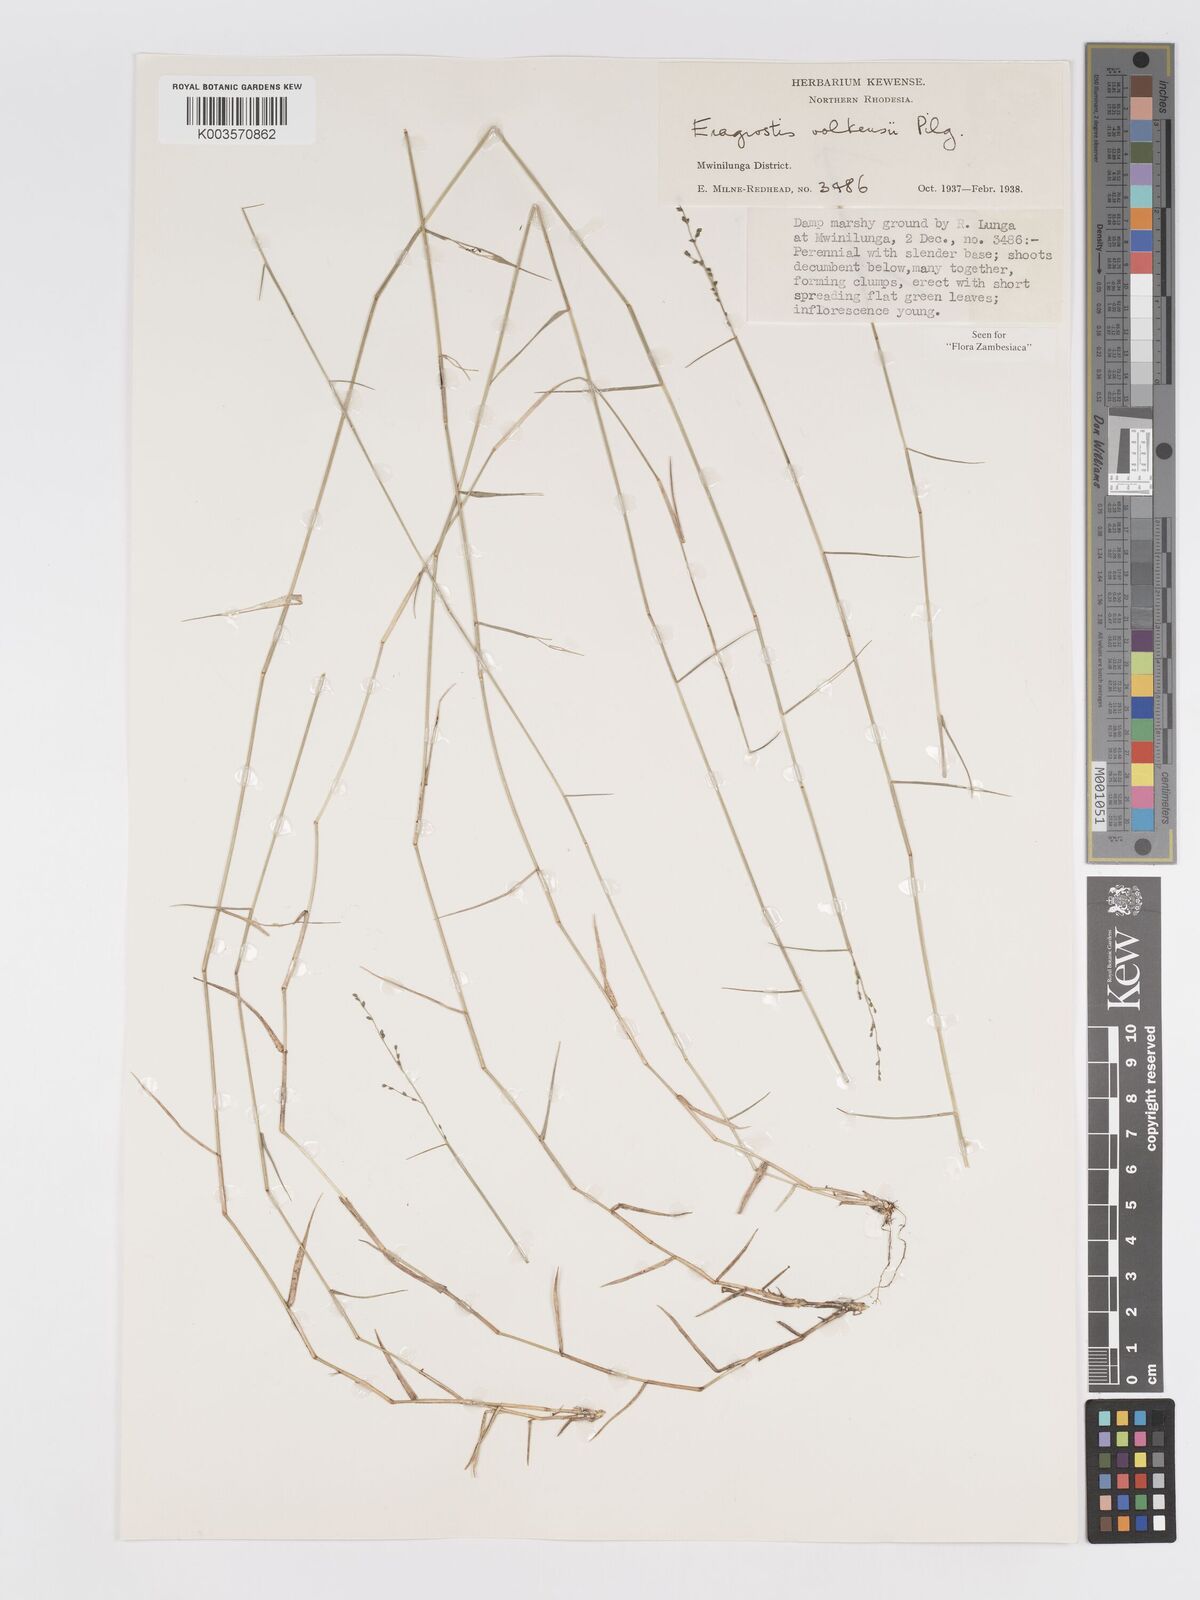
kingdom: Plantae
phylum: Tracheophyta
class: Liliopsida
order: Poales
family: Poaceae
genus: Eragrostis
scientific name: Eragrostis volkensii
